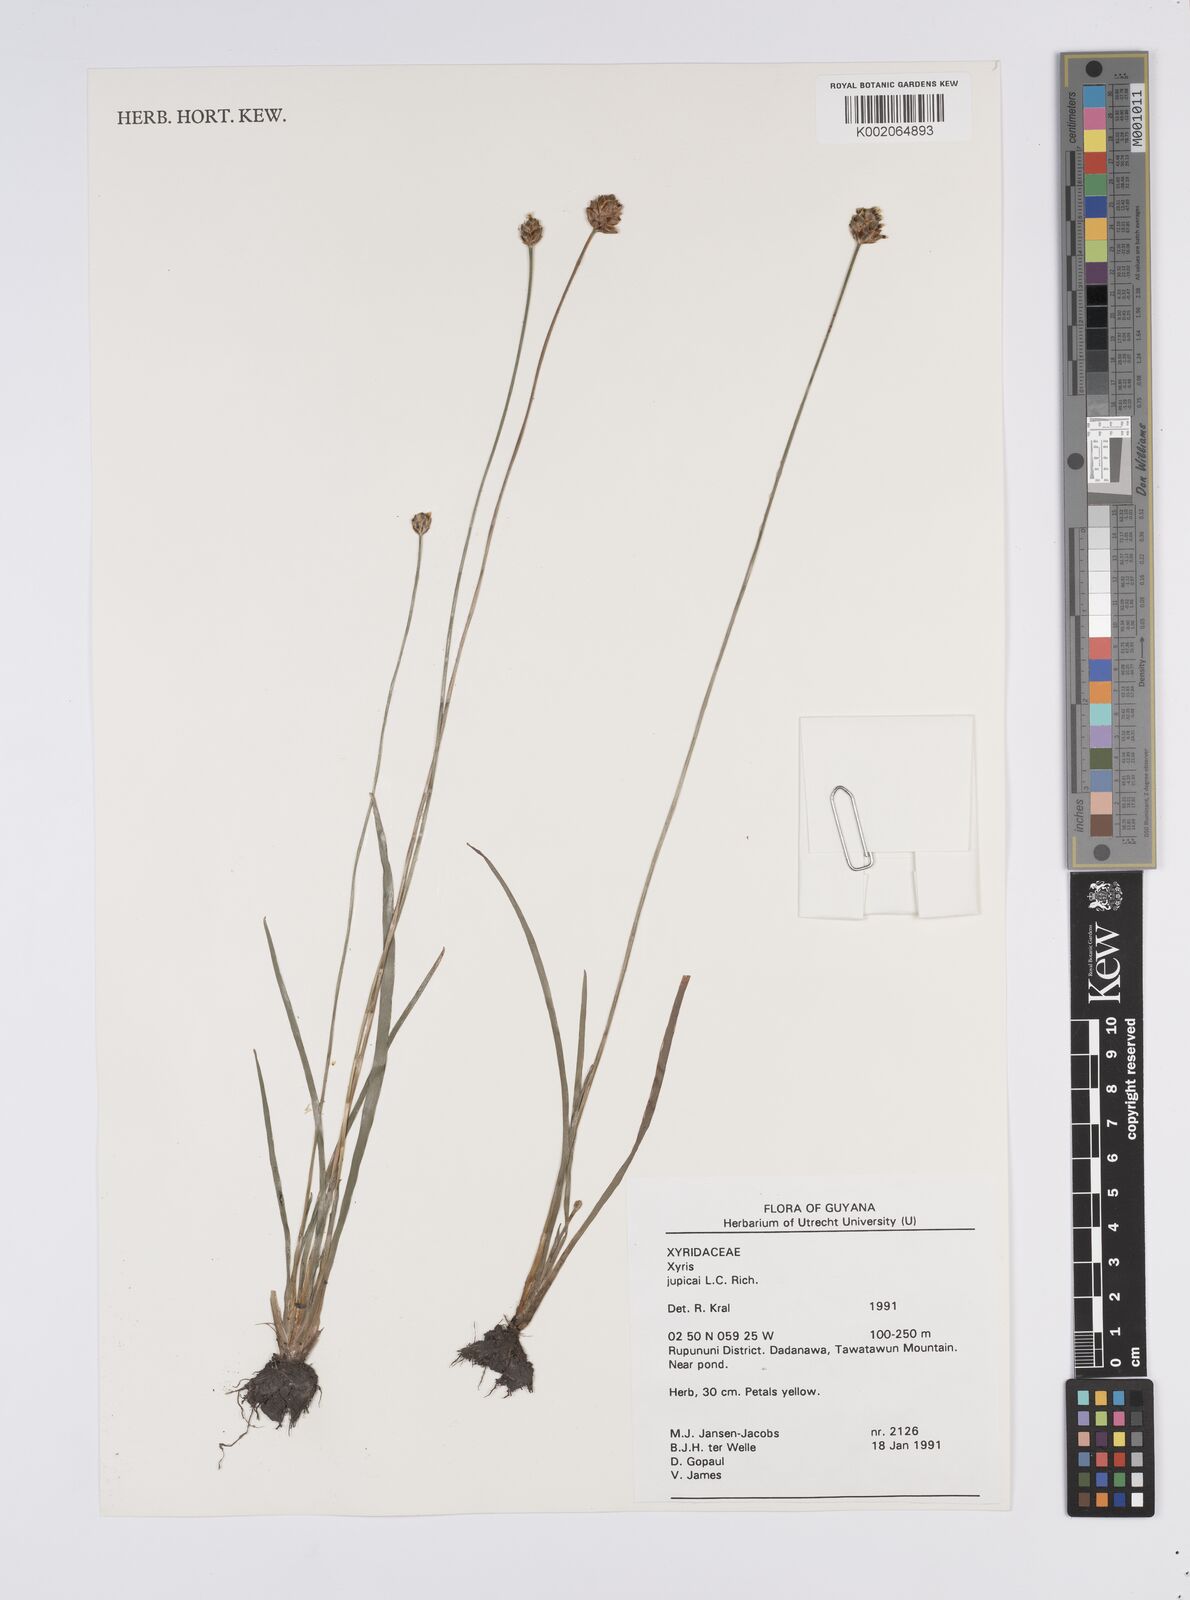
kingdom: Plantae
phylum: Tracheophyta
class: Liliopsida
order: Poales
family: Xyridaceae
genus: Xyris
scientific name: Xyris jupicai
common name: Richard's yelloweyed grass
